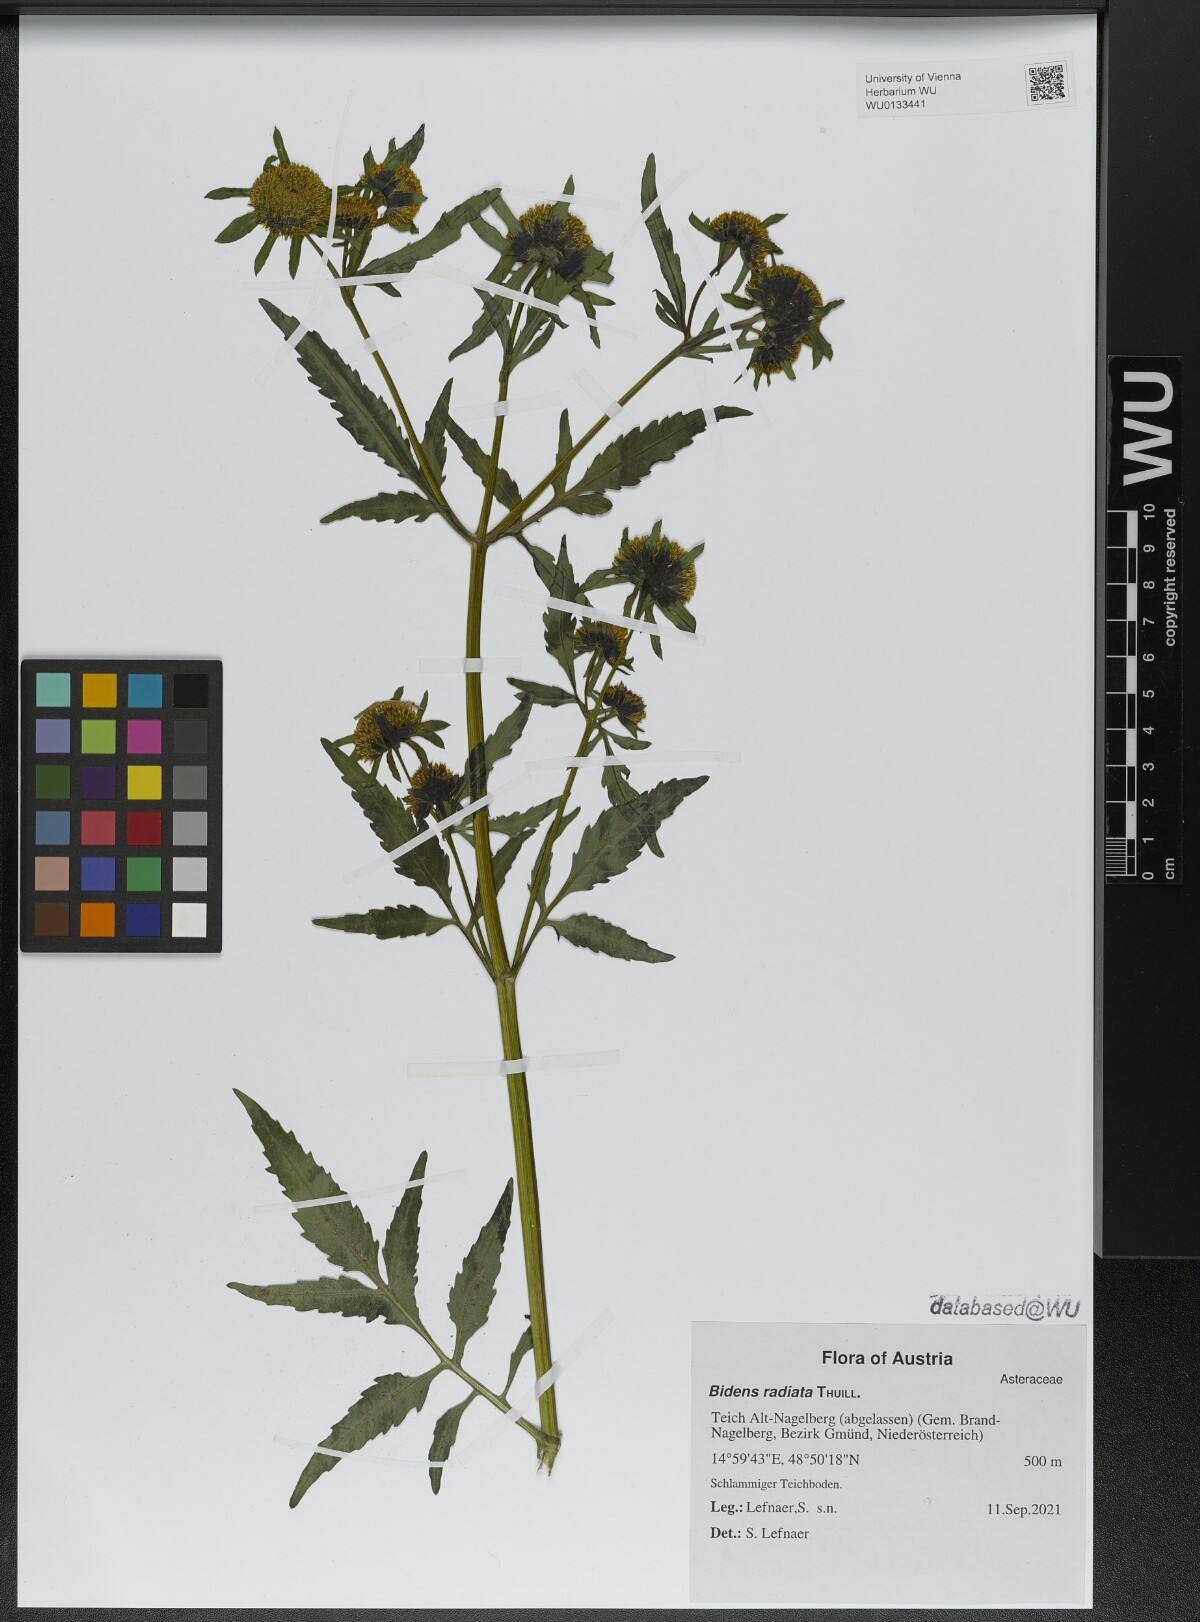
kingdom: Plantae
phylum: Tracheophyta
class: Magnoliopsida
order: Asterales
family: Asteraceae
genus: Bidens
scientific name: Bidens radiata
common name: Radiating bur-marigold
